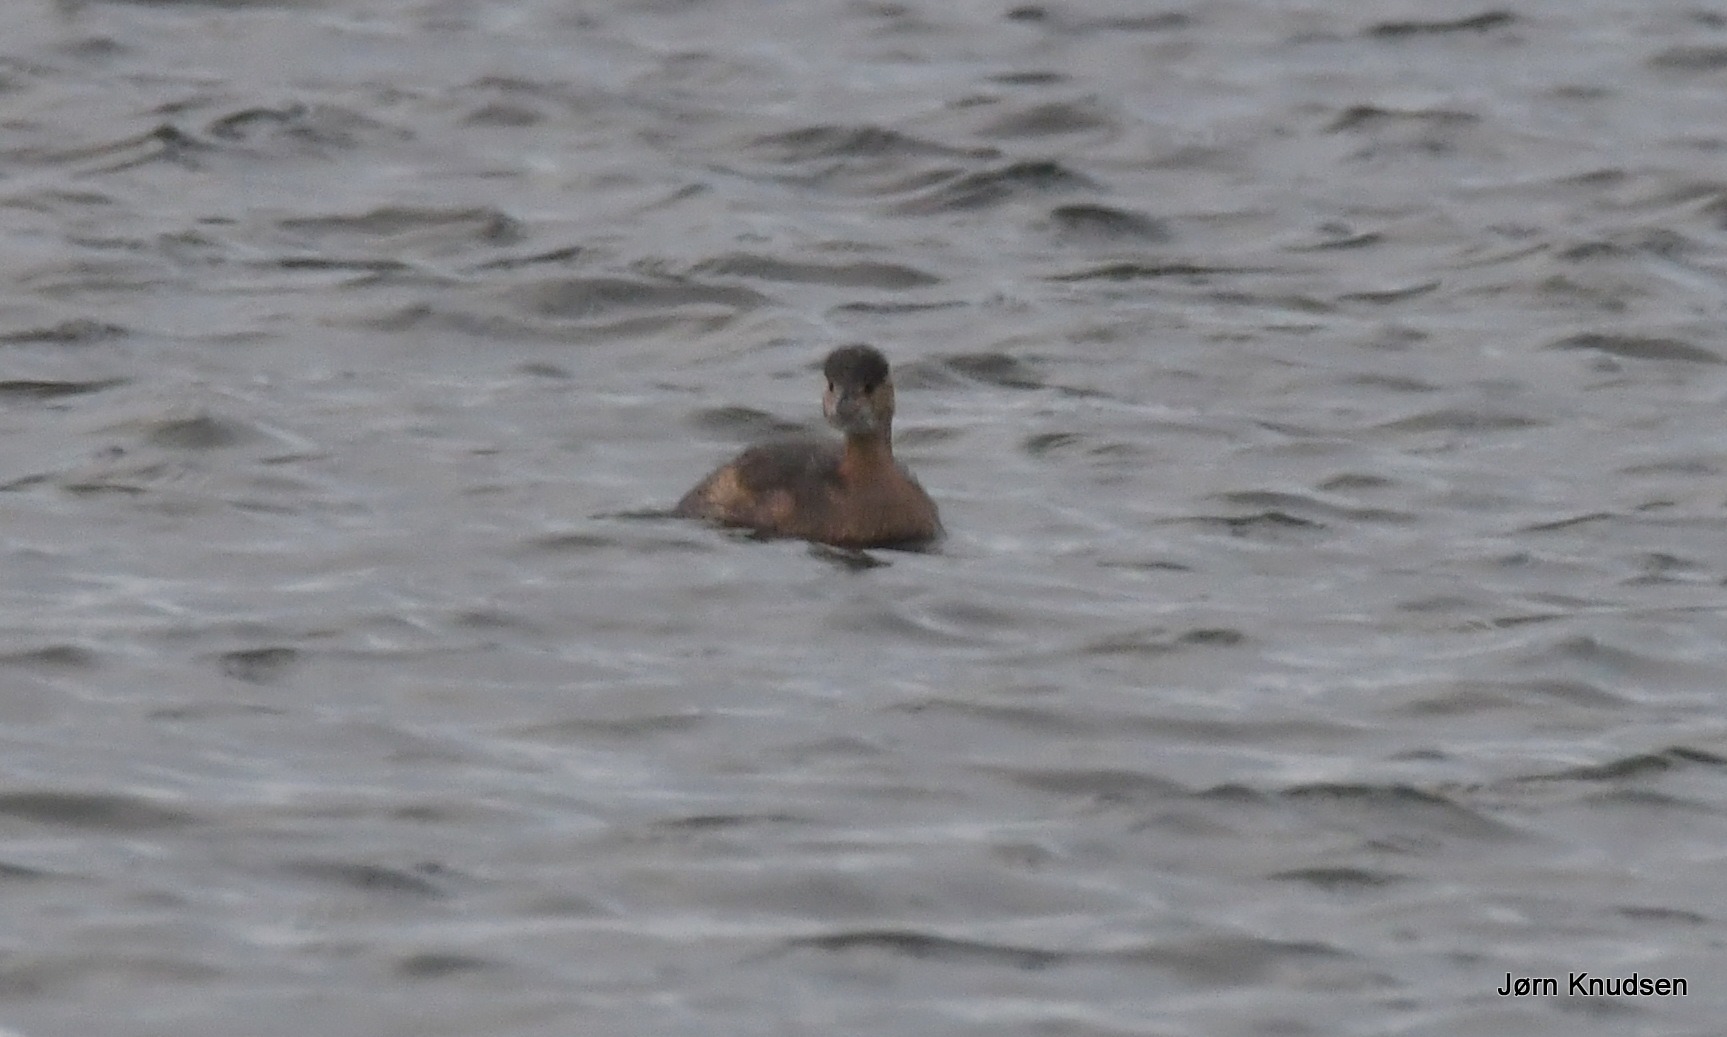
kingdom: Animalia
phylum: Chordata
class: Aves
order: Podicipediformes
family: Podicipedidae
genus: Tachybaptus
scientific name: Tachybaptus ruficollis
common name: Lille lappedykker
